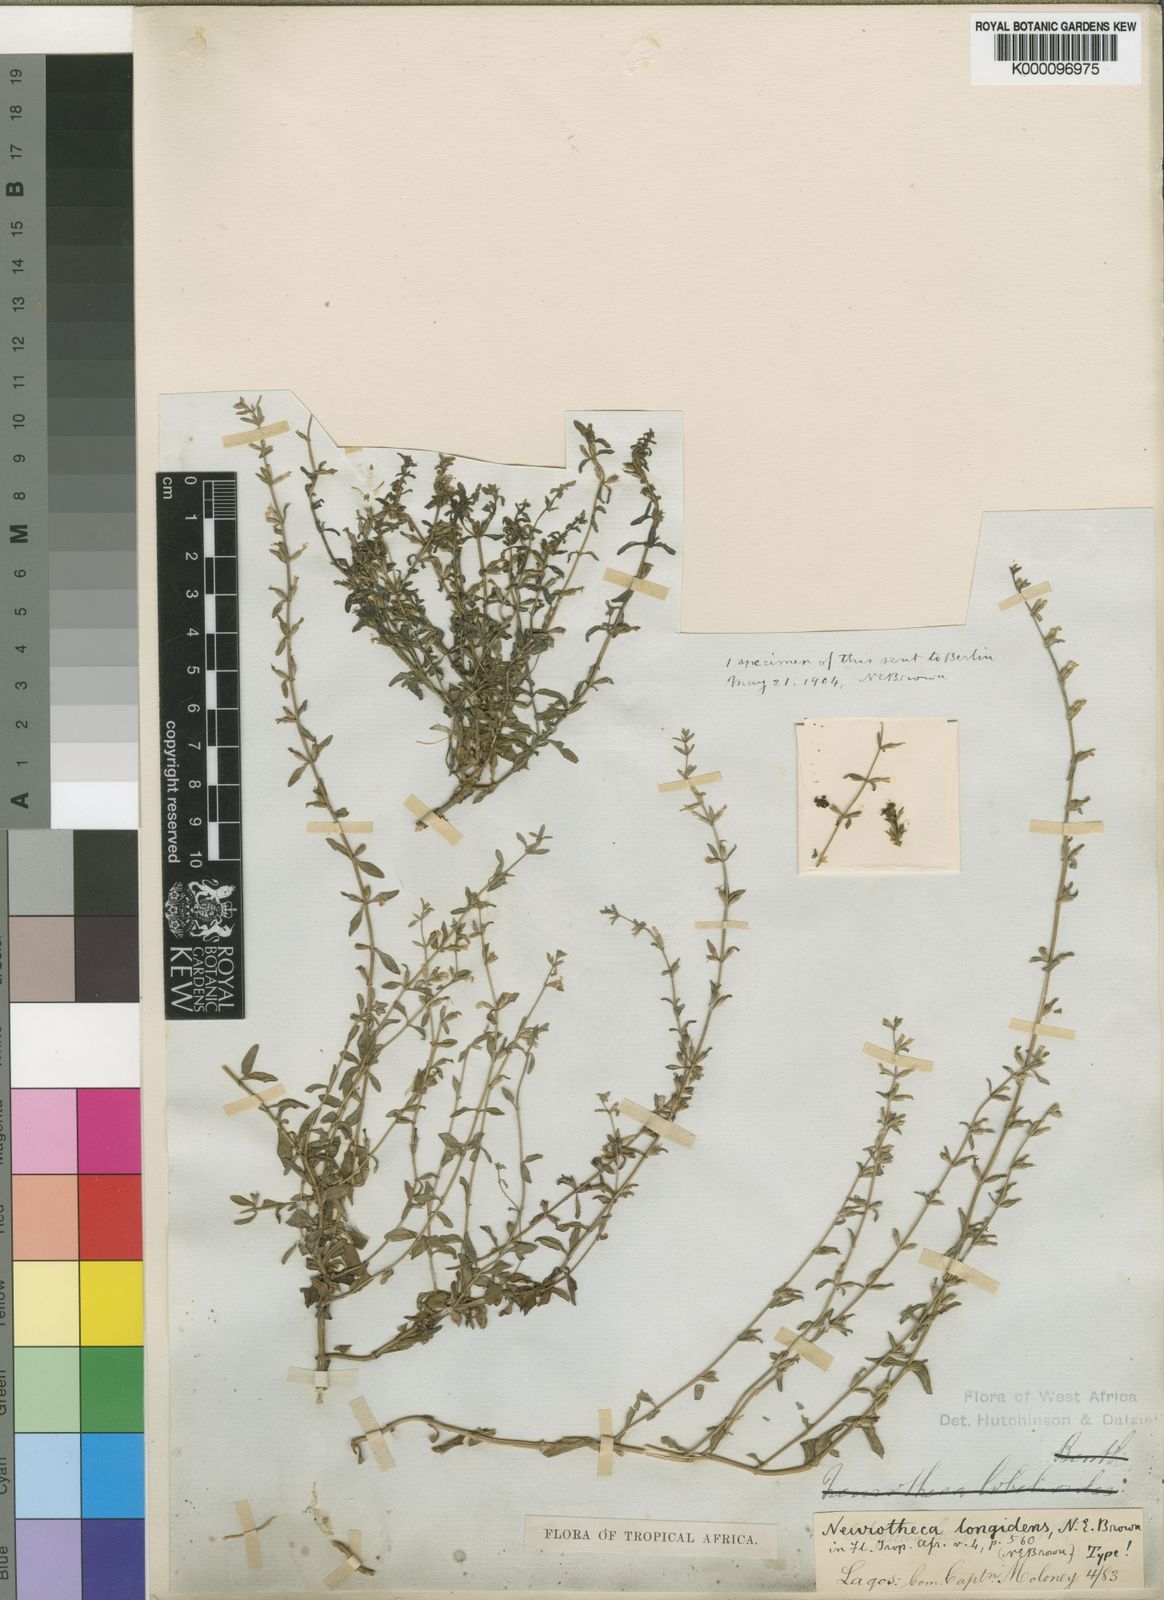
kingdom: Plantae
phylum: Tracheophyta
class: Magnoliopsida
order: Gentianales
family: Gentianaceae
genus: Congolanthus
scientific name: Congolanthus longidens
